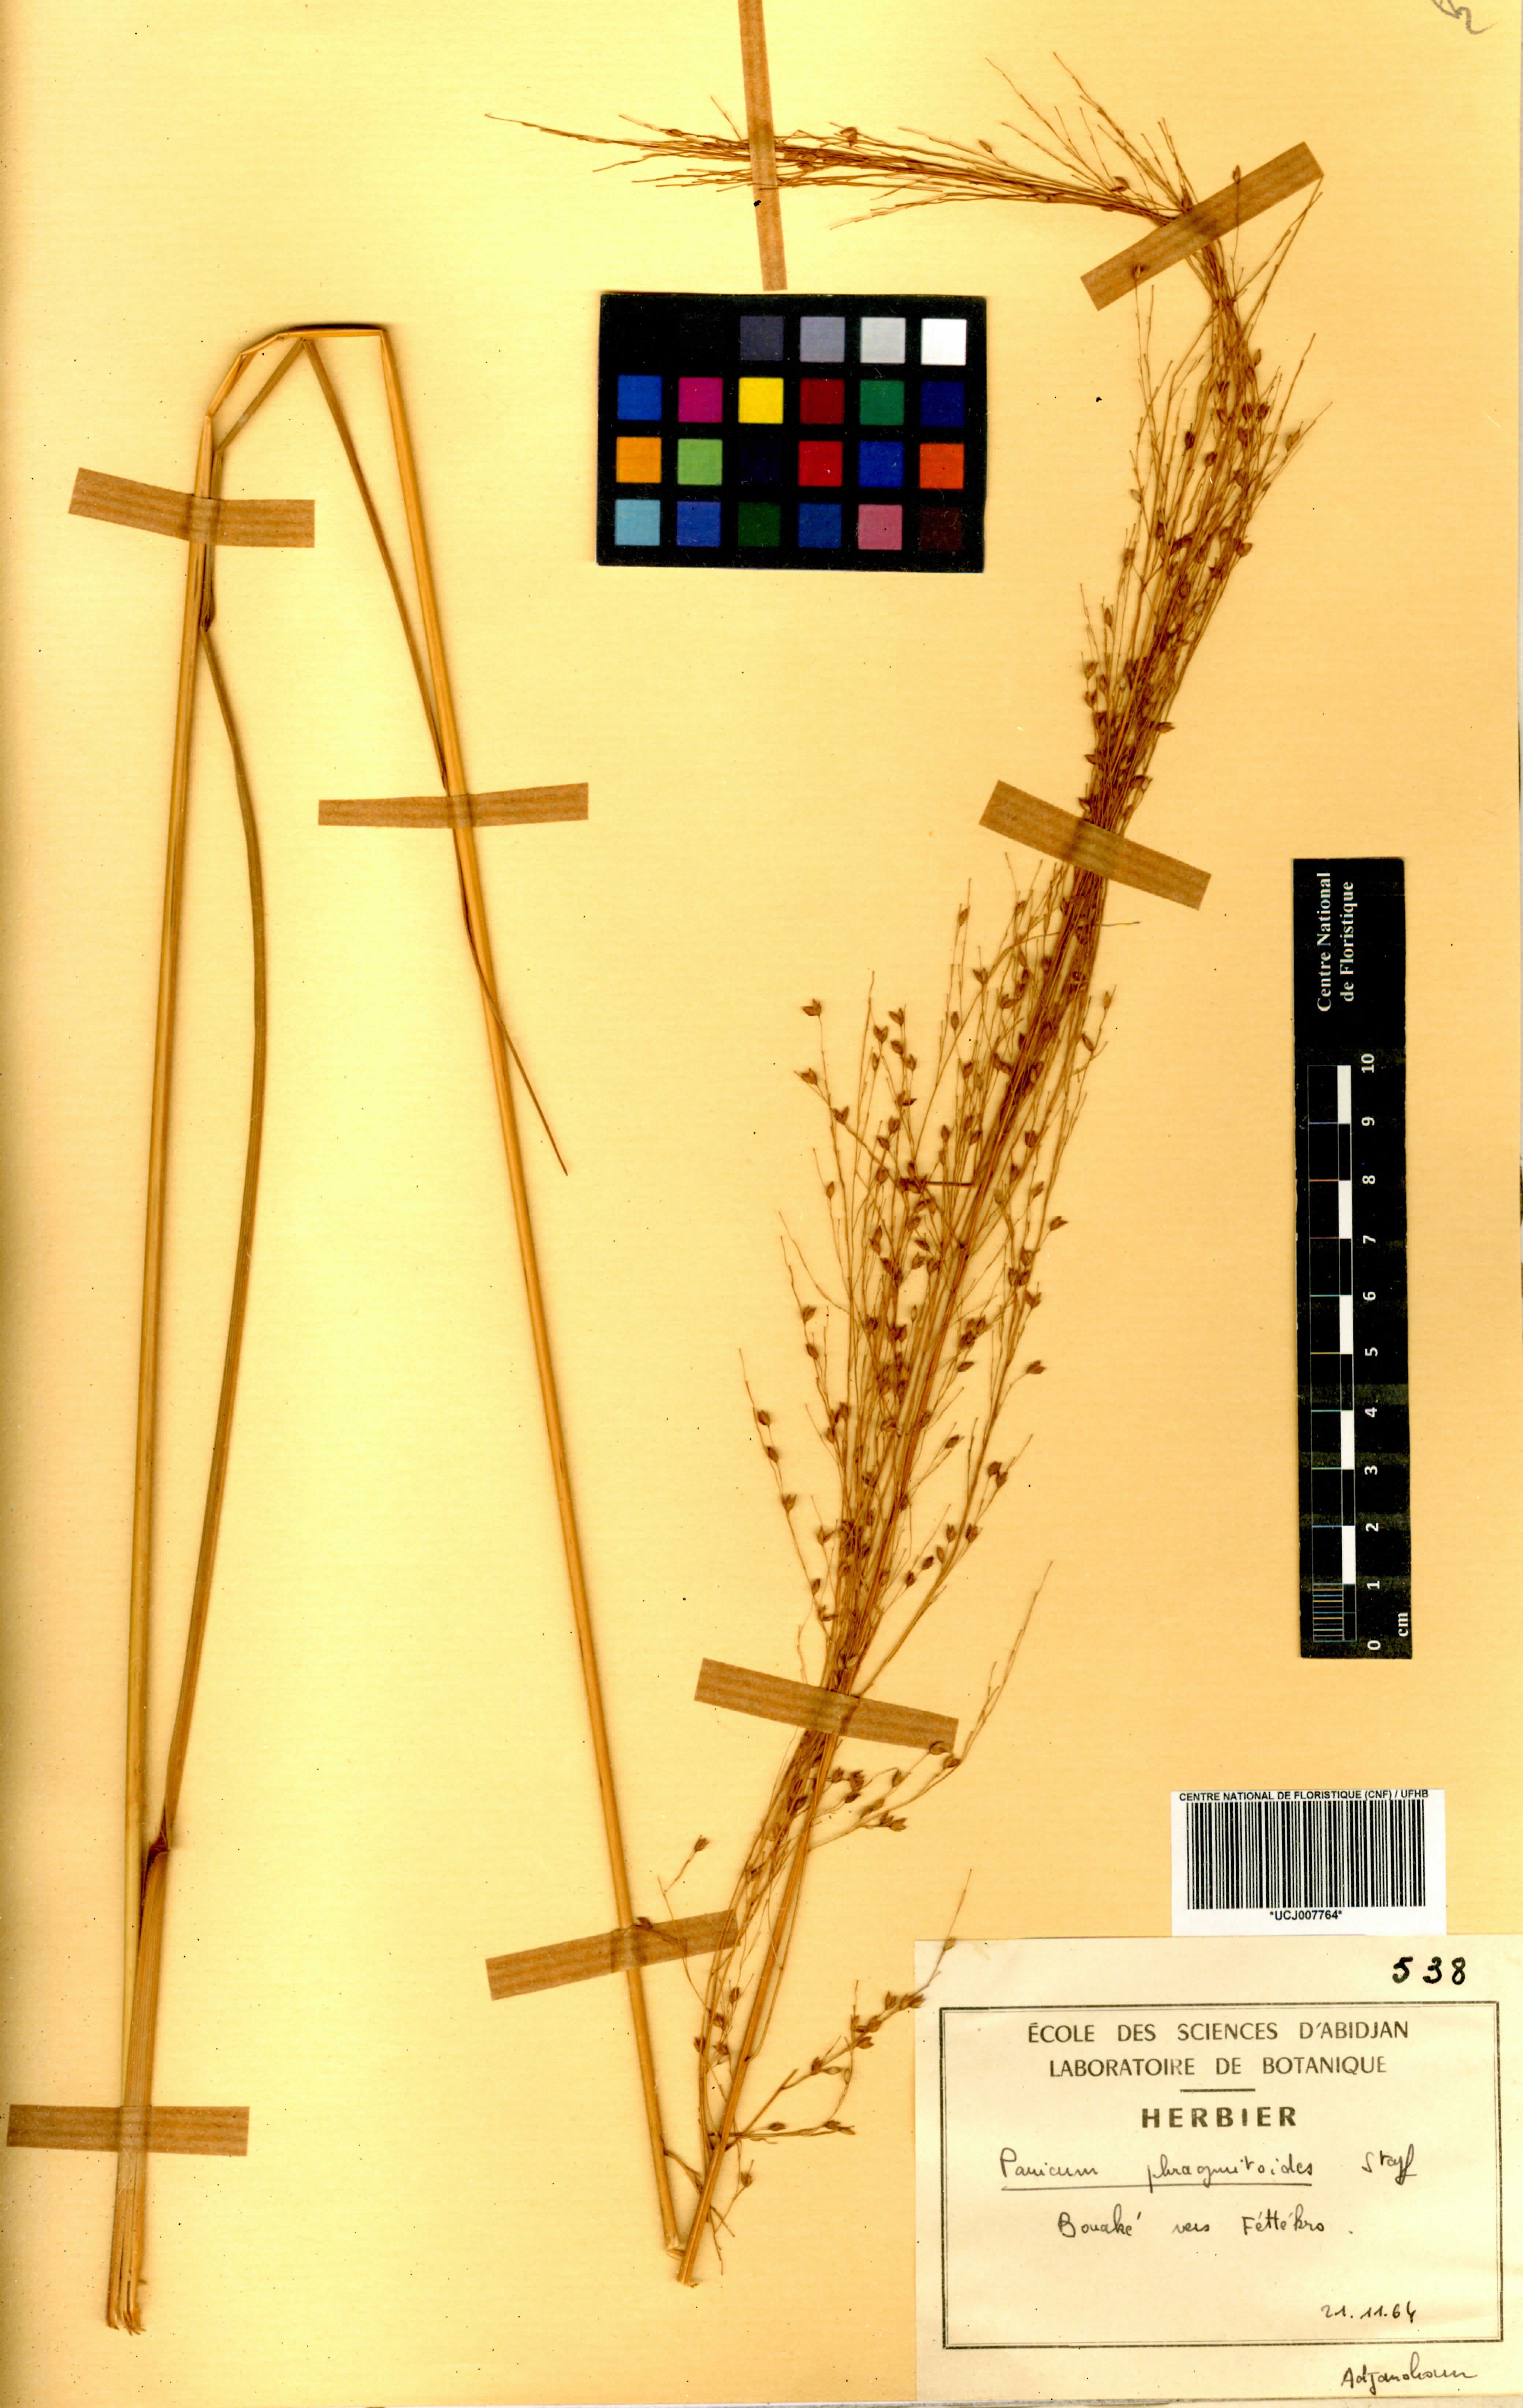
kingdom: Plantae
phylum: Tracheophyta
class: Liliopsida
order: Poales
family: Poaceae
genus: Panicum
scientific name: Panicum phragmitoides
